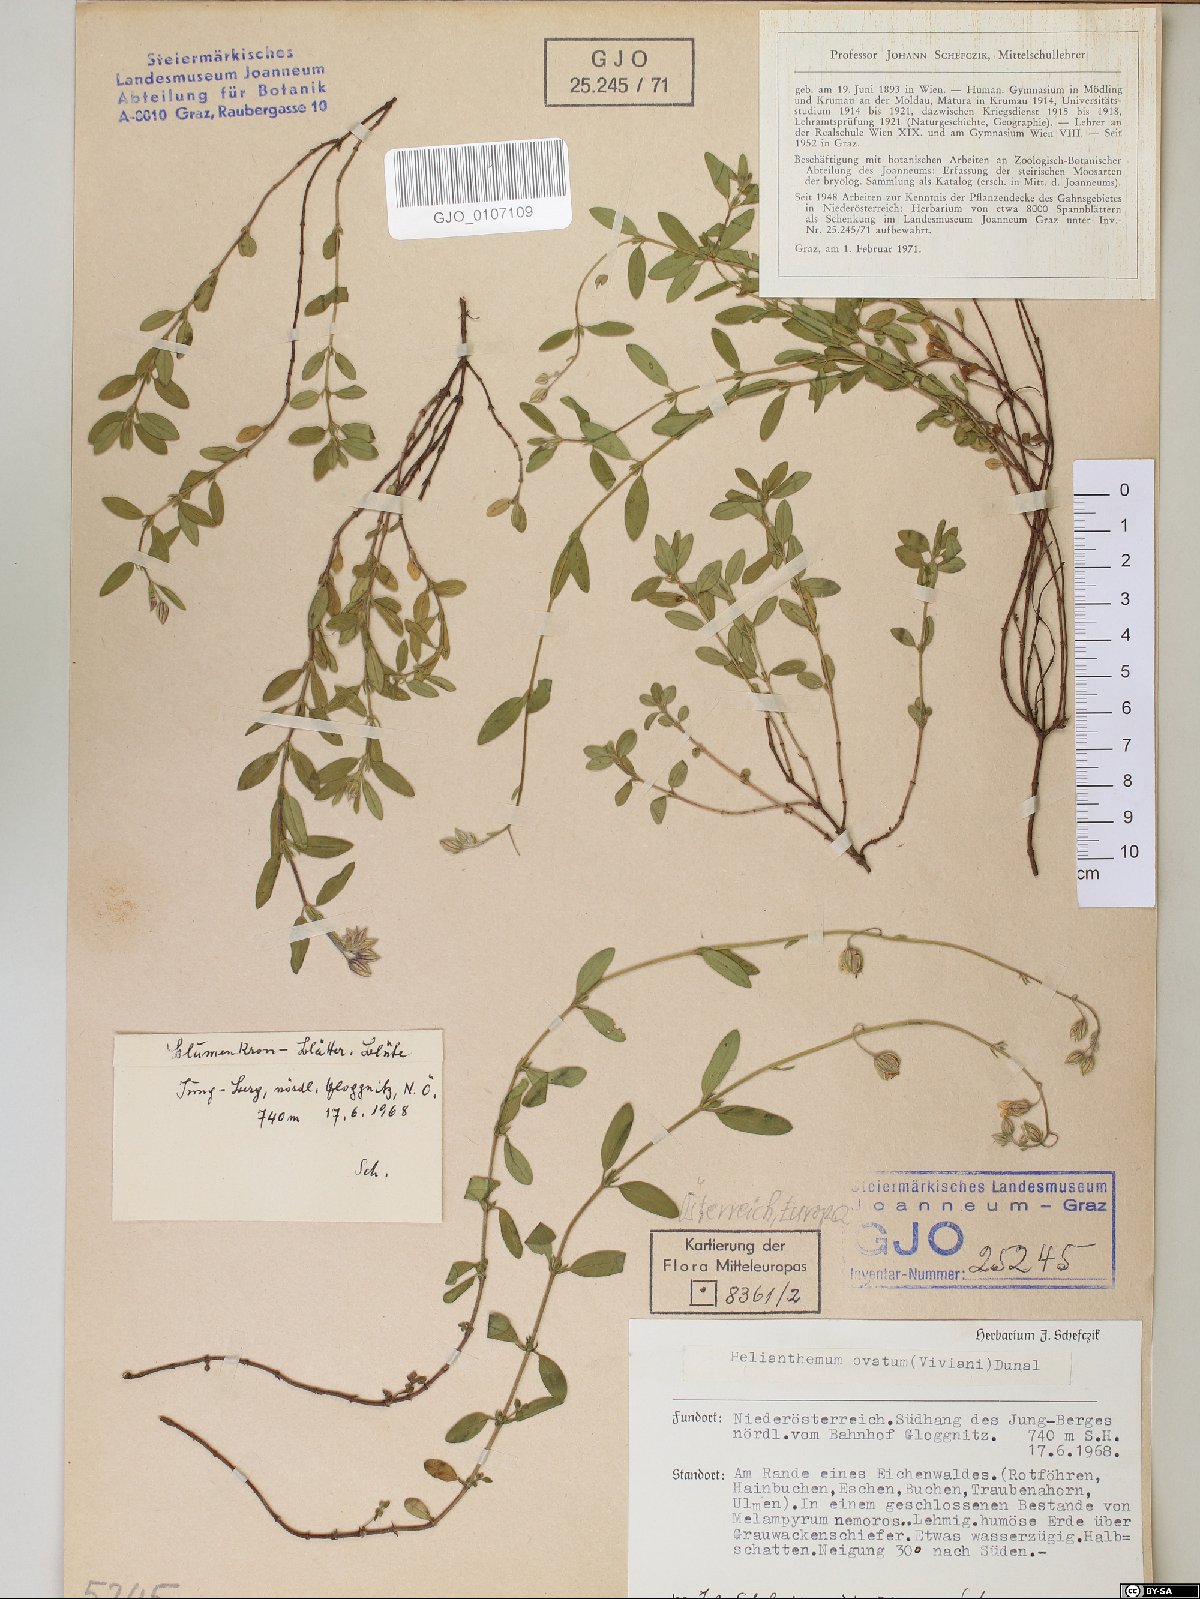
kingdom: Plantae
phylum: Tracheophyta
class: Magnoliopsida
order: Malvales
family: Cistaceae
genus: Helianthemum
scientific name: Helianthemum nummularium
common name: Common rock-rose
